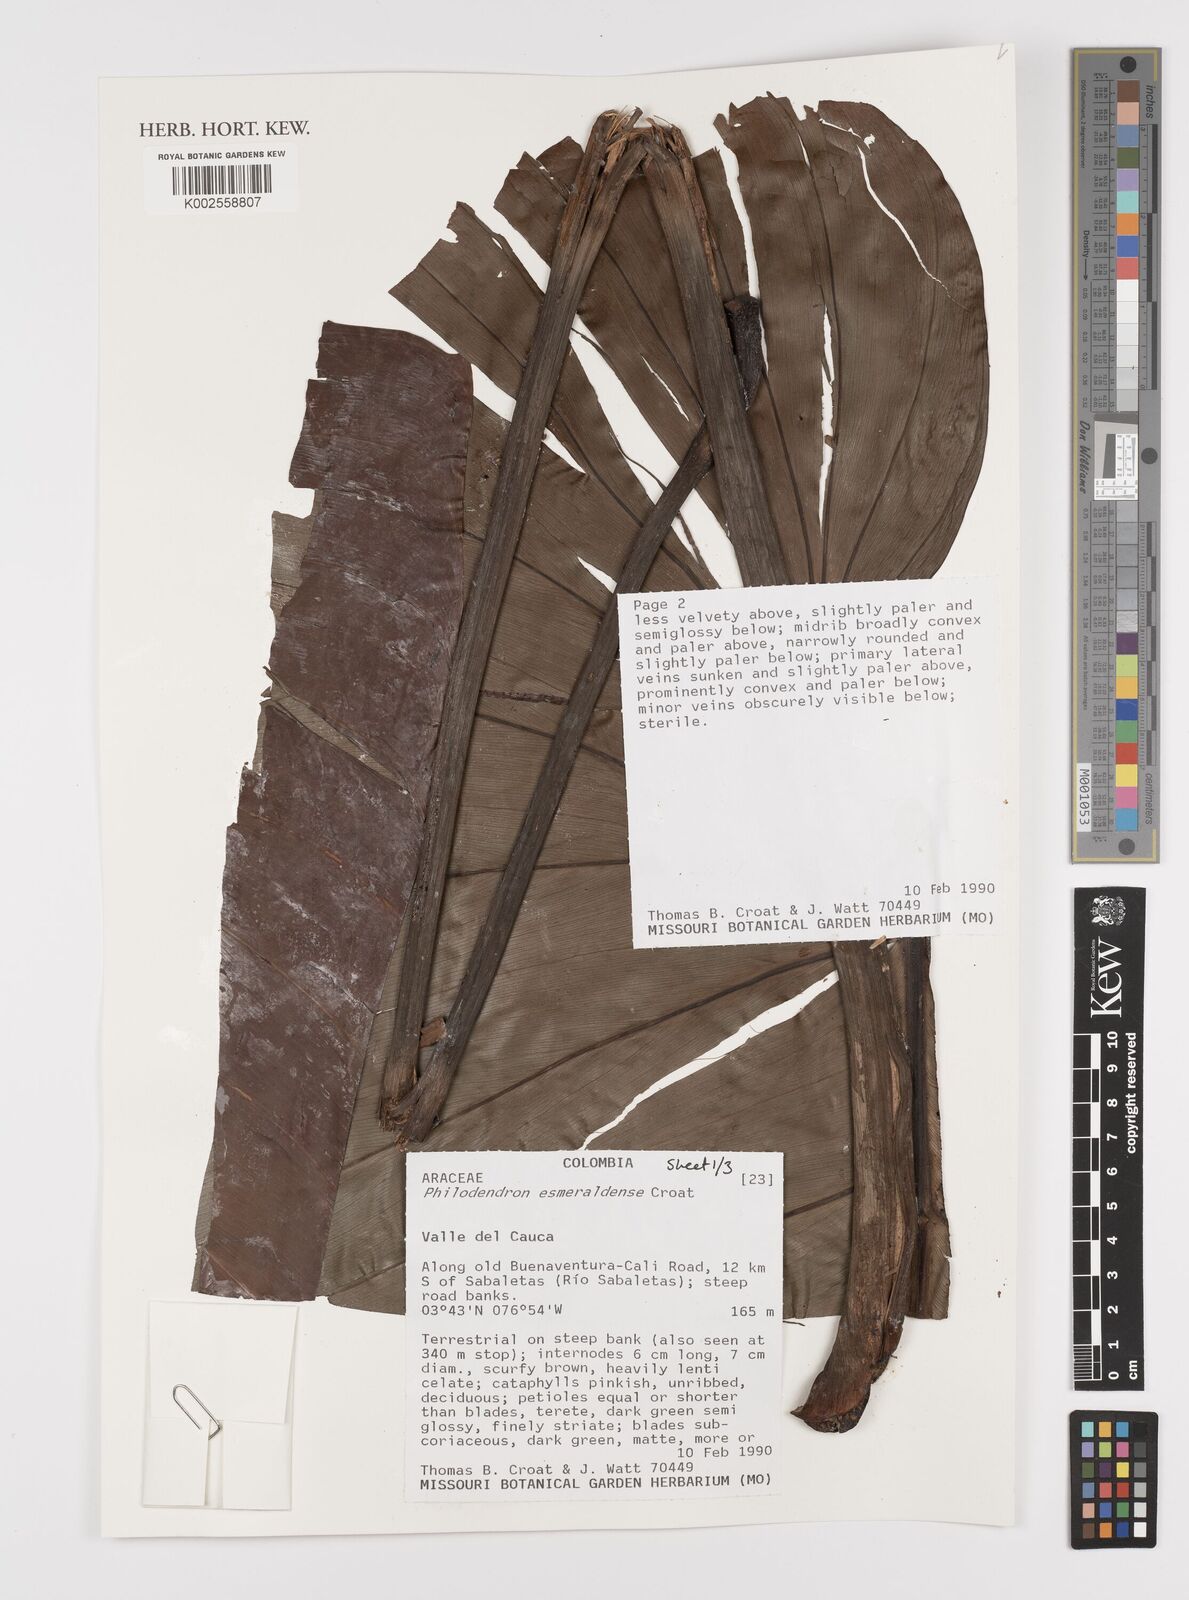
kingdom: Plantae
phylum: Tracheophyta
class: Liliopsida
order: Alismatales
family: Araceae
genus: Philodendron
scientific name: Philodendron esmeraldense
